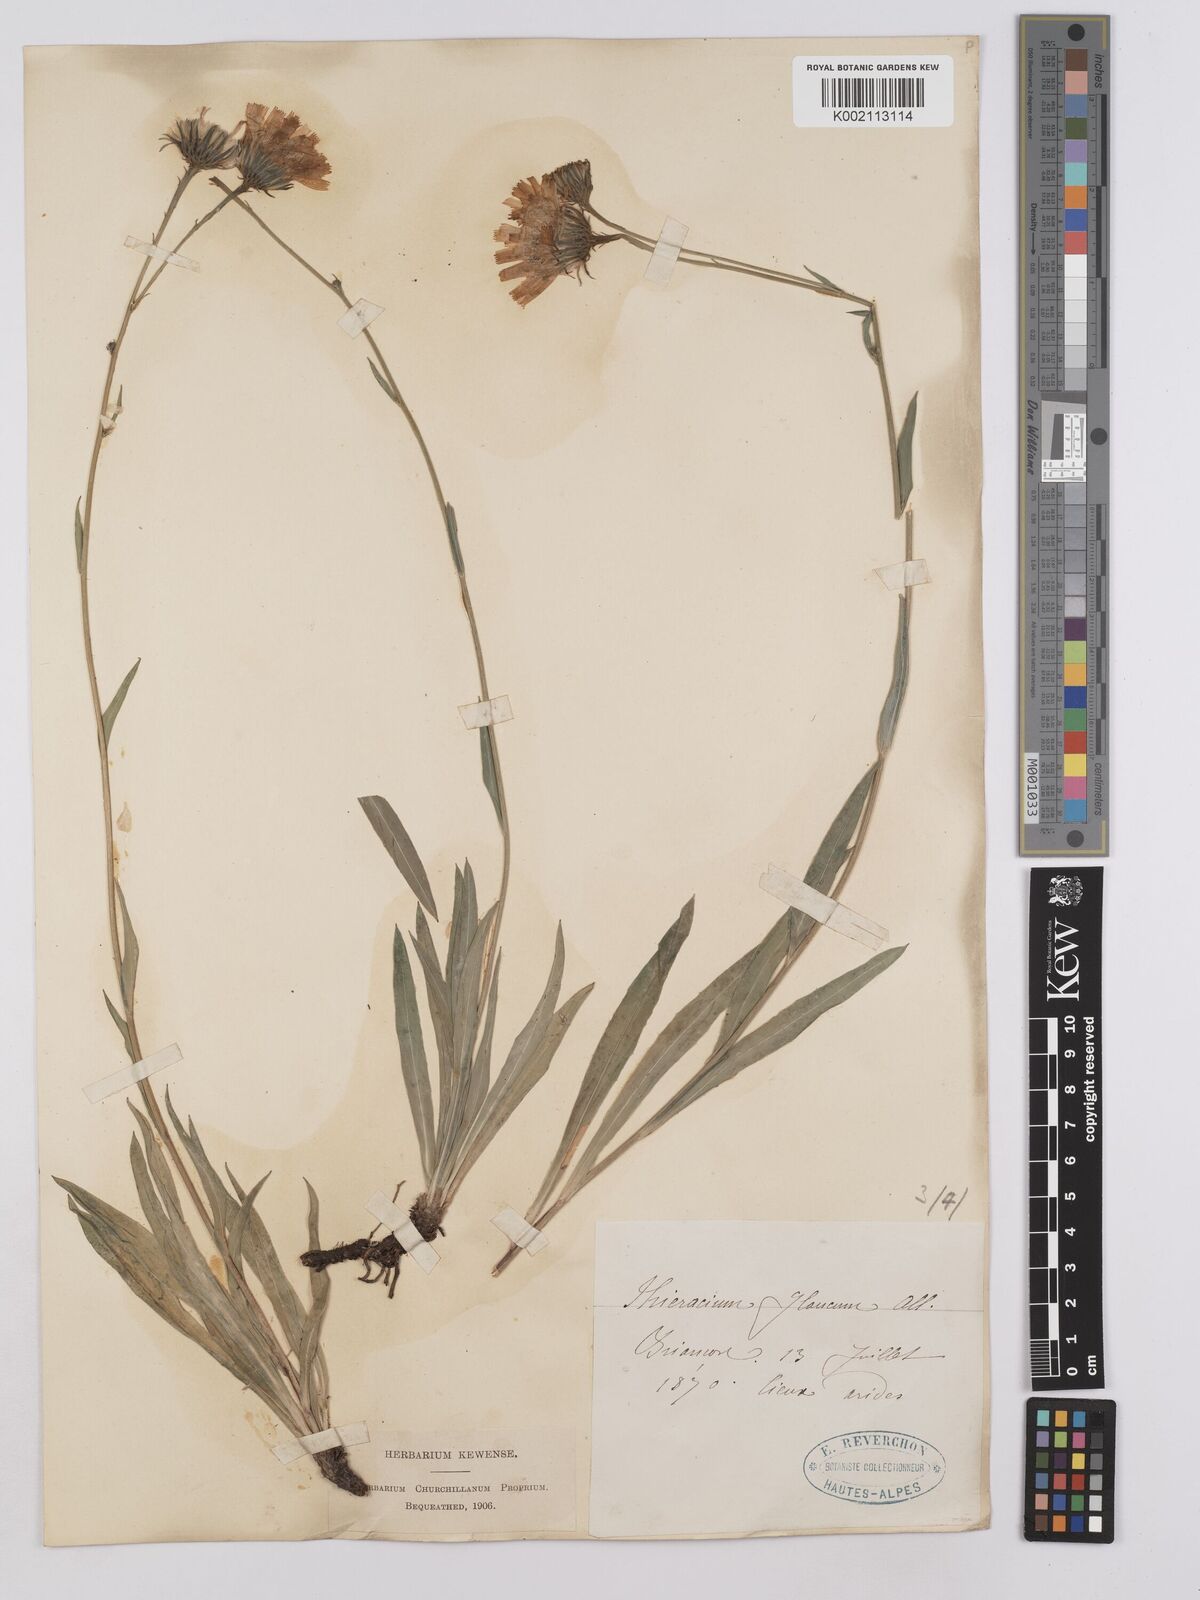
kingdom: Plantae
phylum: Tracheophyta
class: Magnoliopsida
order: Asterales
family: Asteraceae
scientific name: Asteraceae
